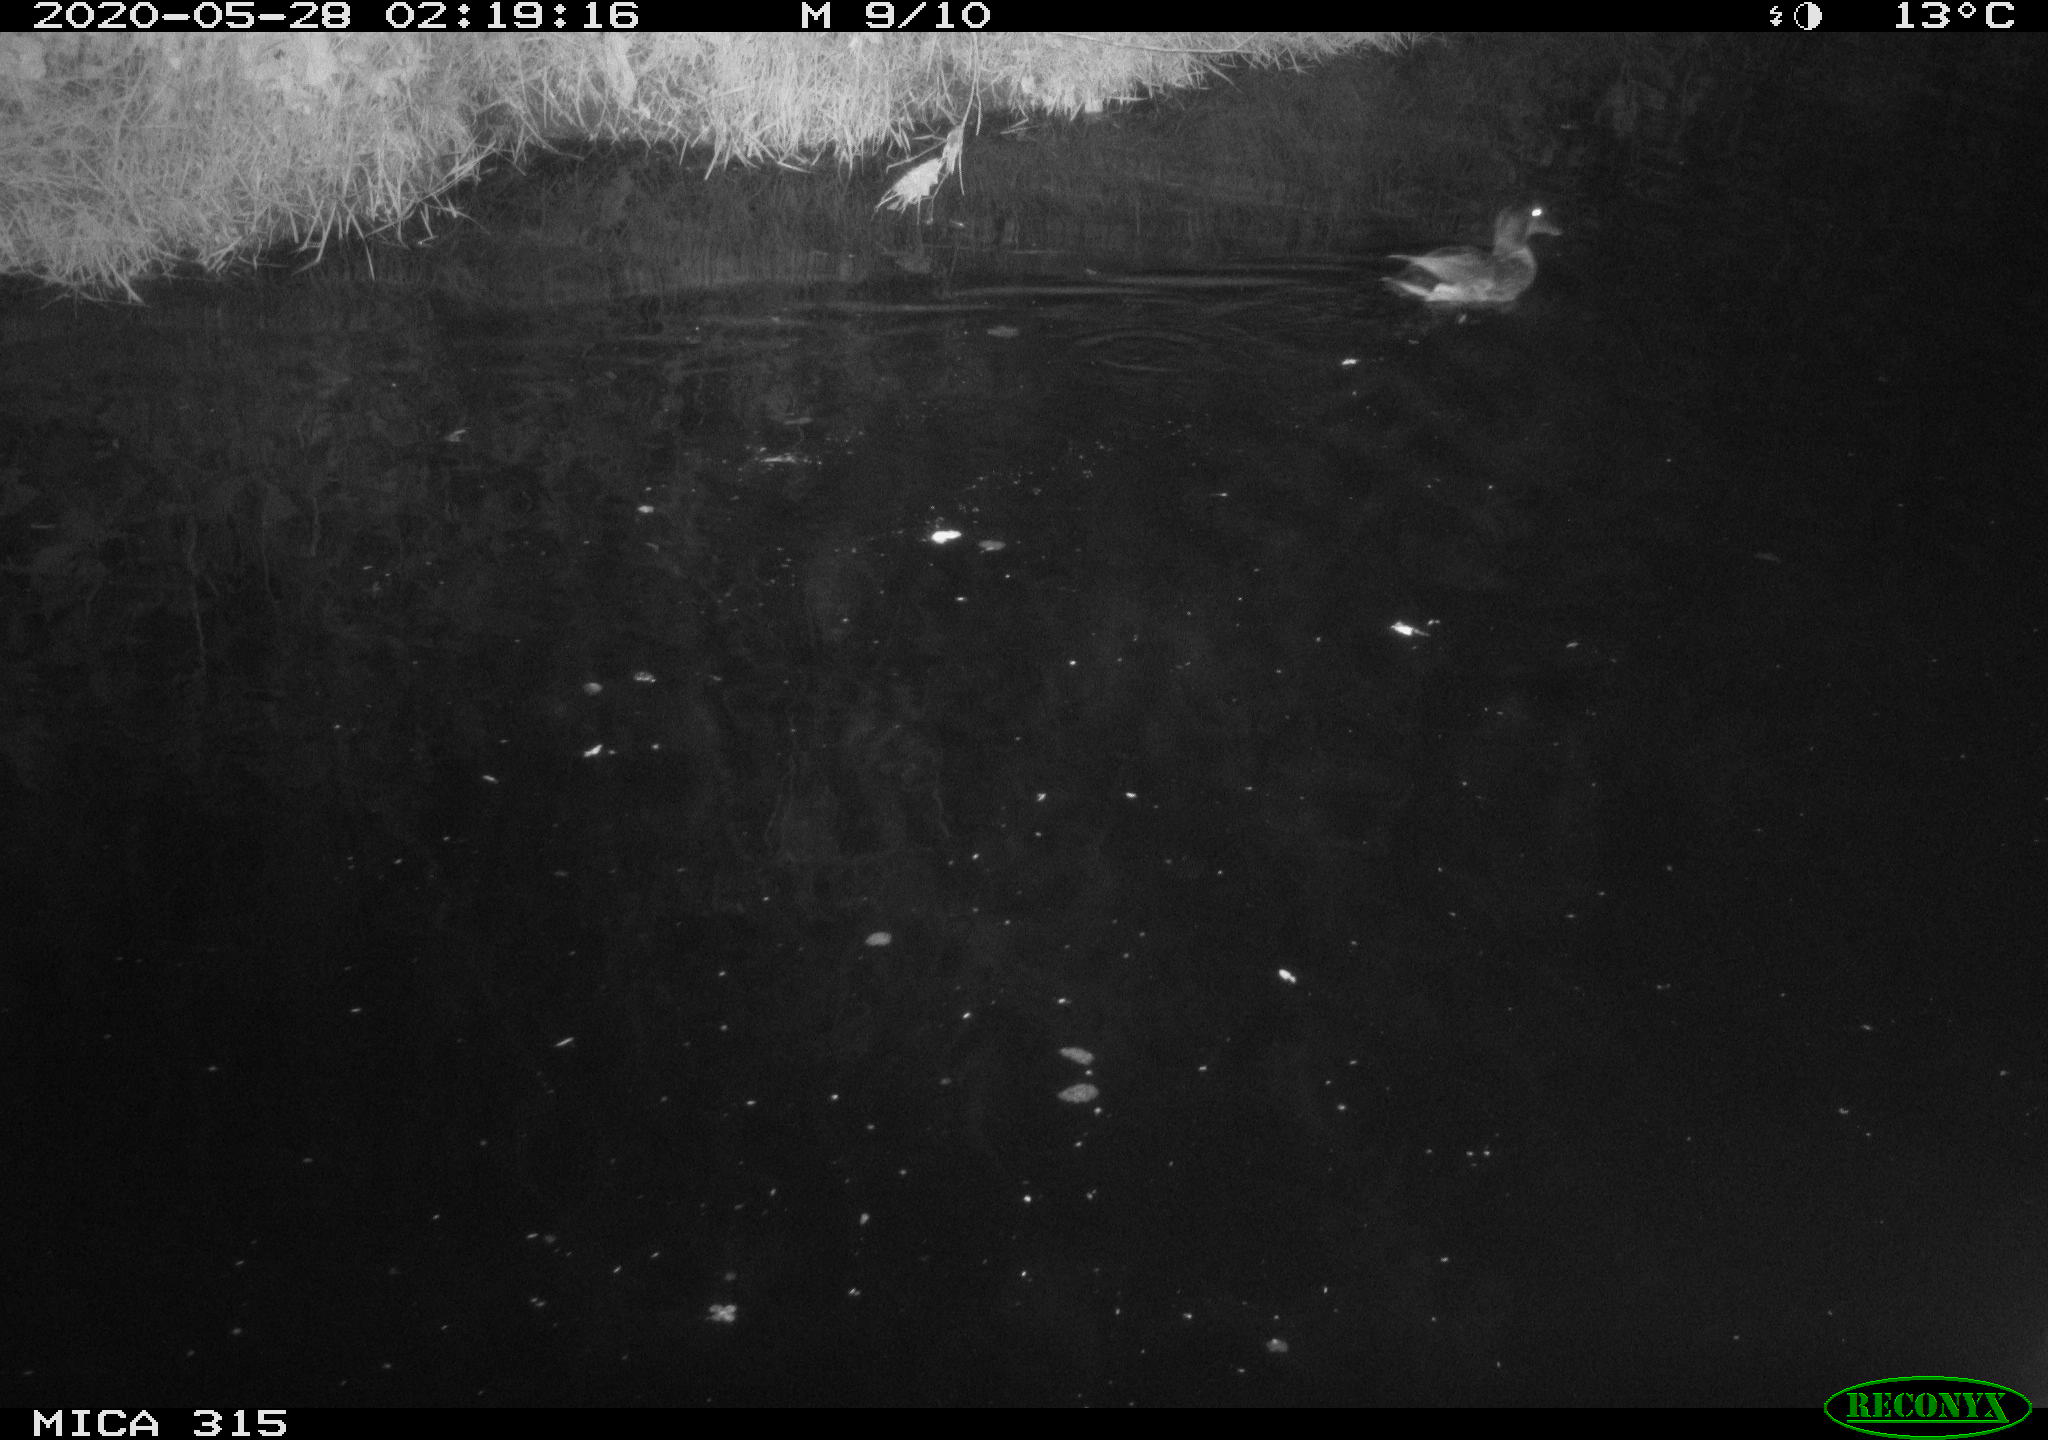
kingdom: Animalia
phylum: Chordata
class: Aves
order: Anseriformes
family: Anatidae
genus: Anas
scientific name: Anas platyrhynchos
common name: Mallard
